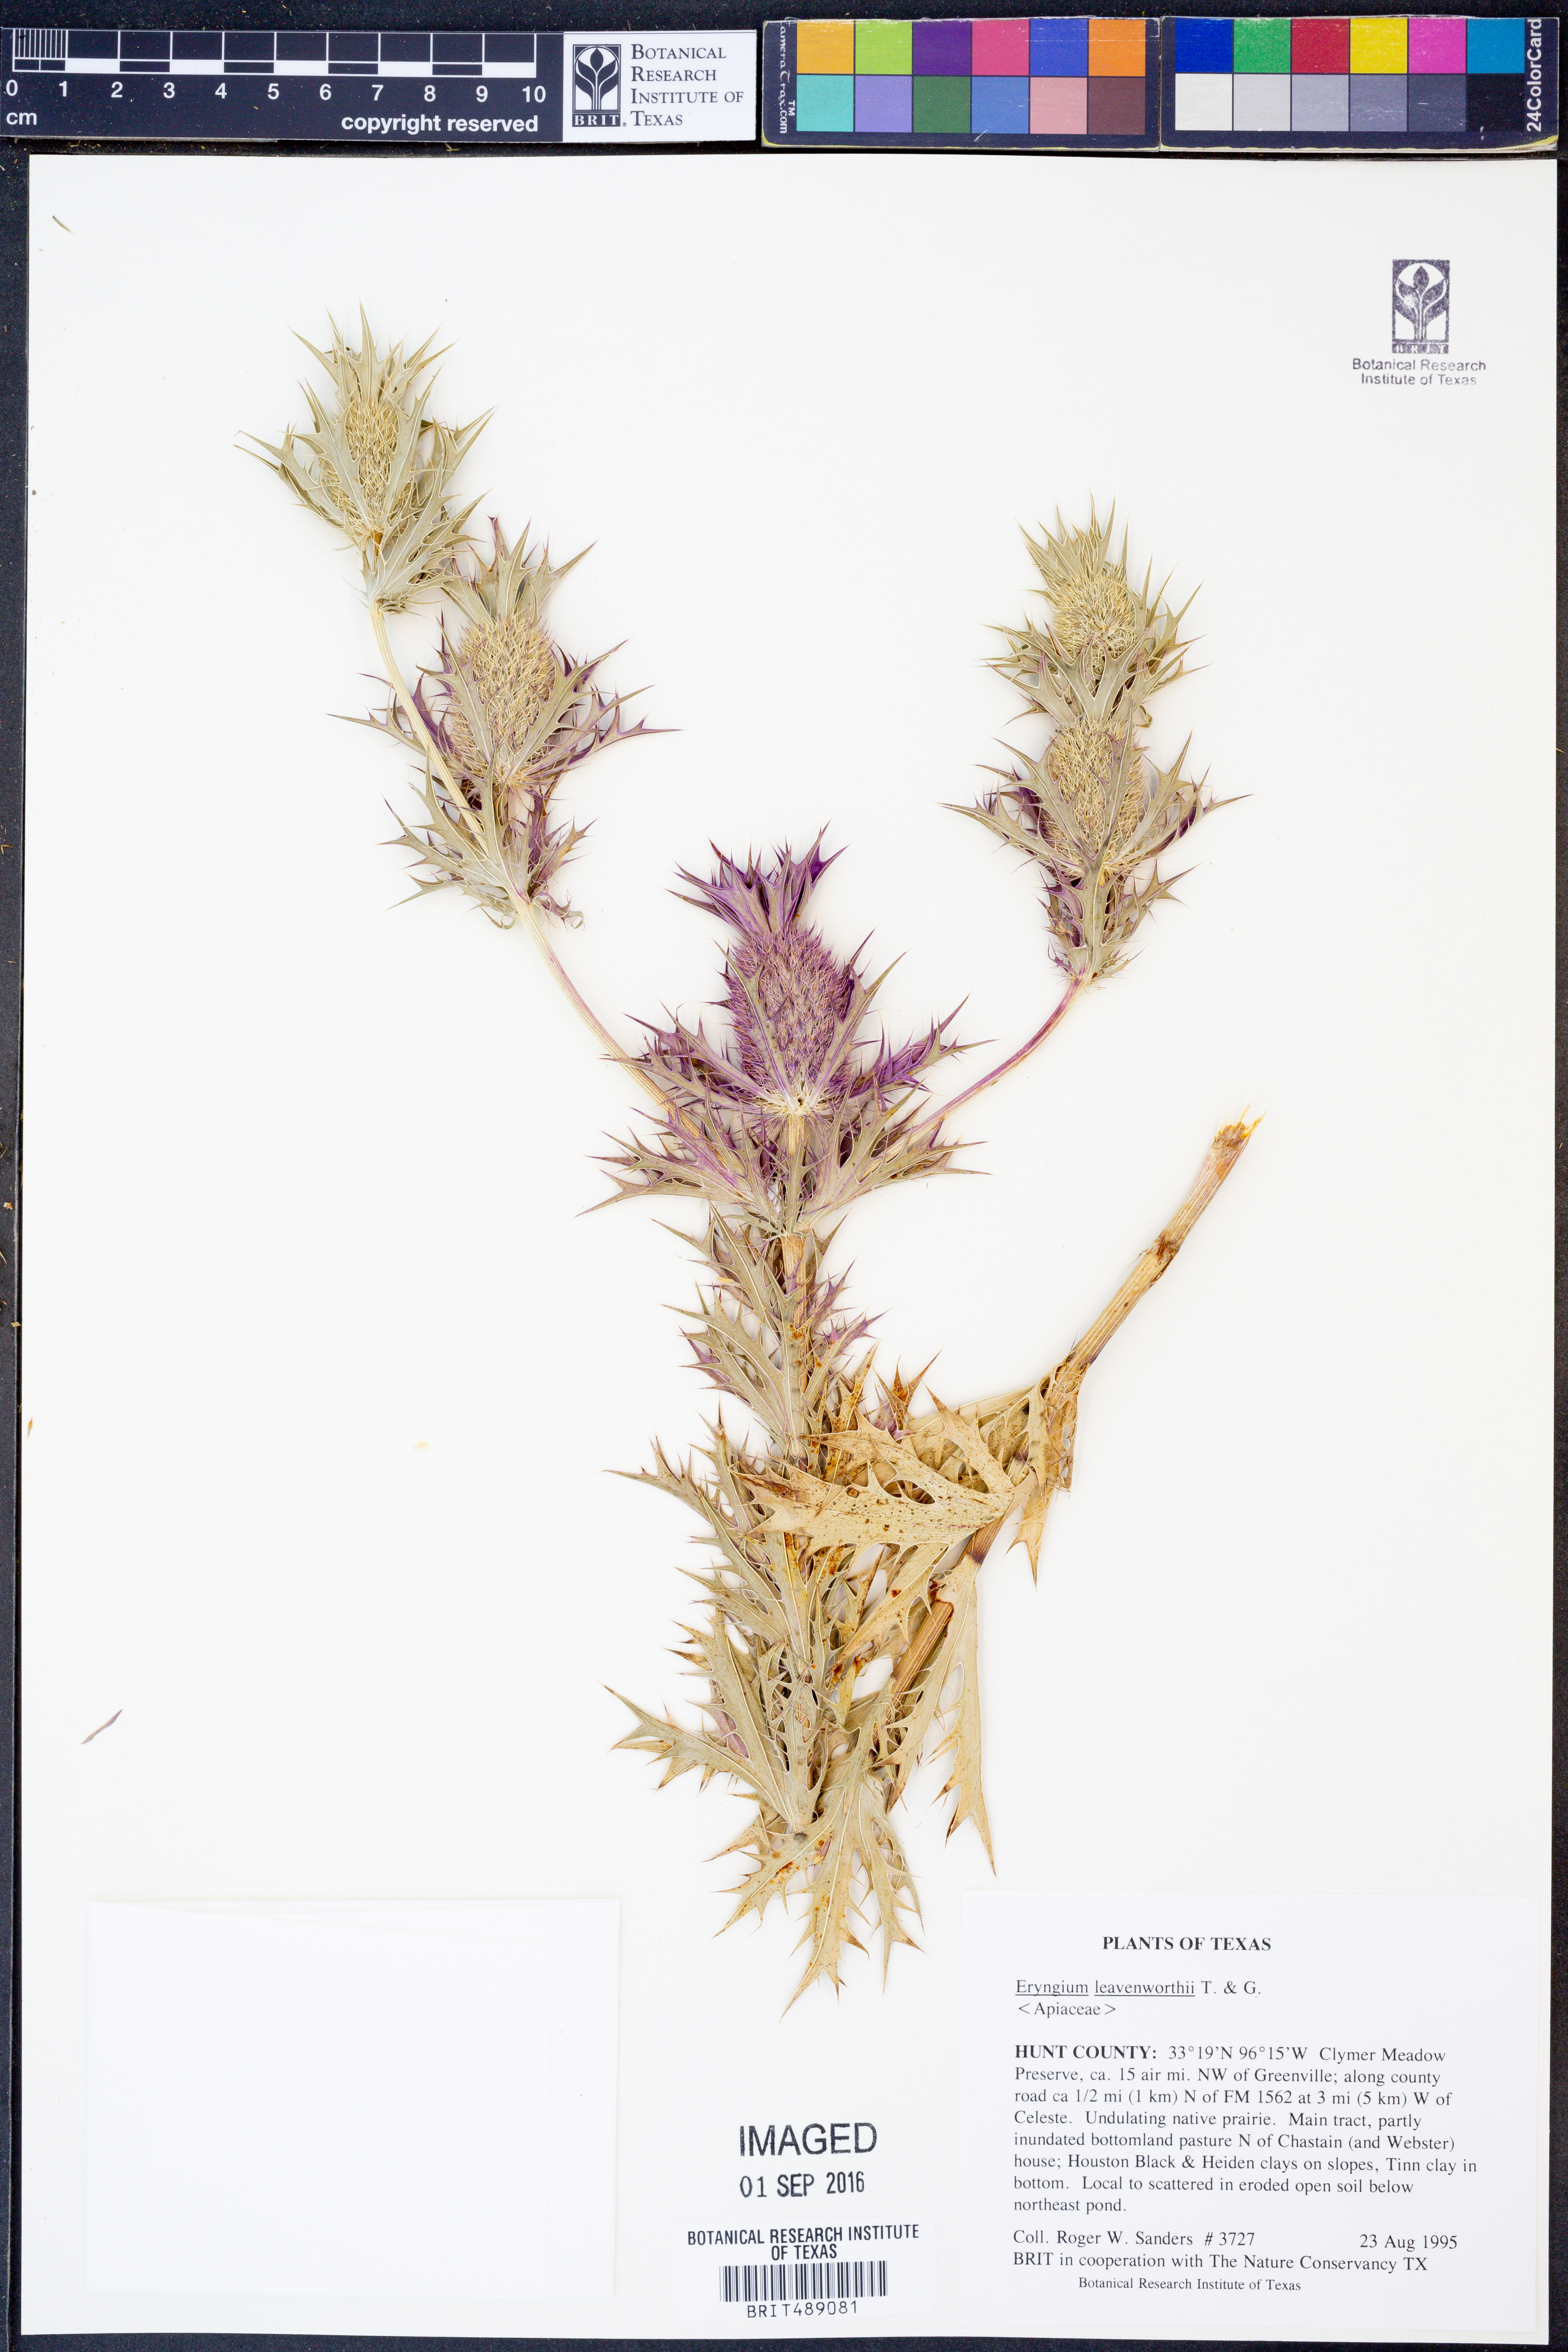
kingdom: Plantae
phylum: Tracheophyta
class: Magnoliopsida
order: Apiales
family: Apiaceae
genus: Eryngium
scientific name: Eryngium leavenworthii
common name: Leavenworth's eryngo
